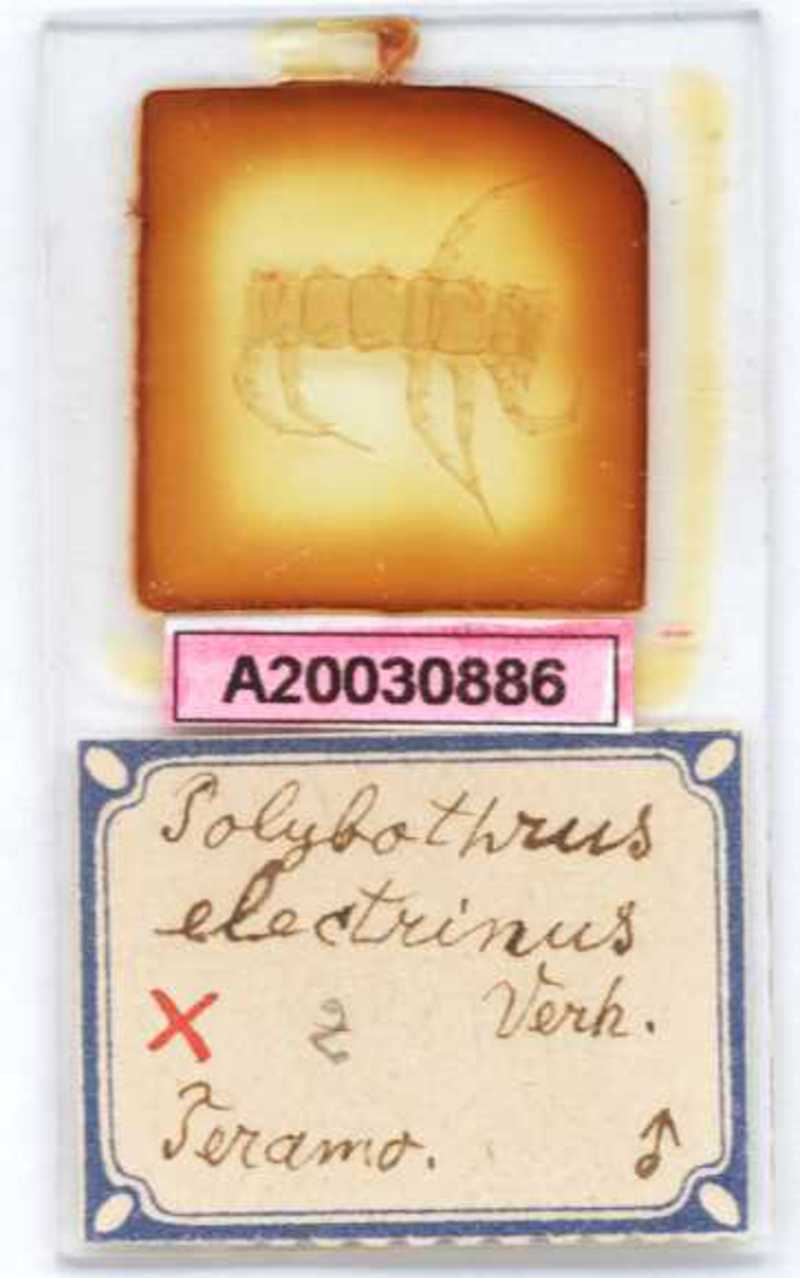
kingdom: Animalia
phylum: Arthropoda
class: Chilopoda
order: Lithobiomorpha
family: Lithobiidae
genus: Eupolybothrus
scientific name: Eupolybothrus imperialis
